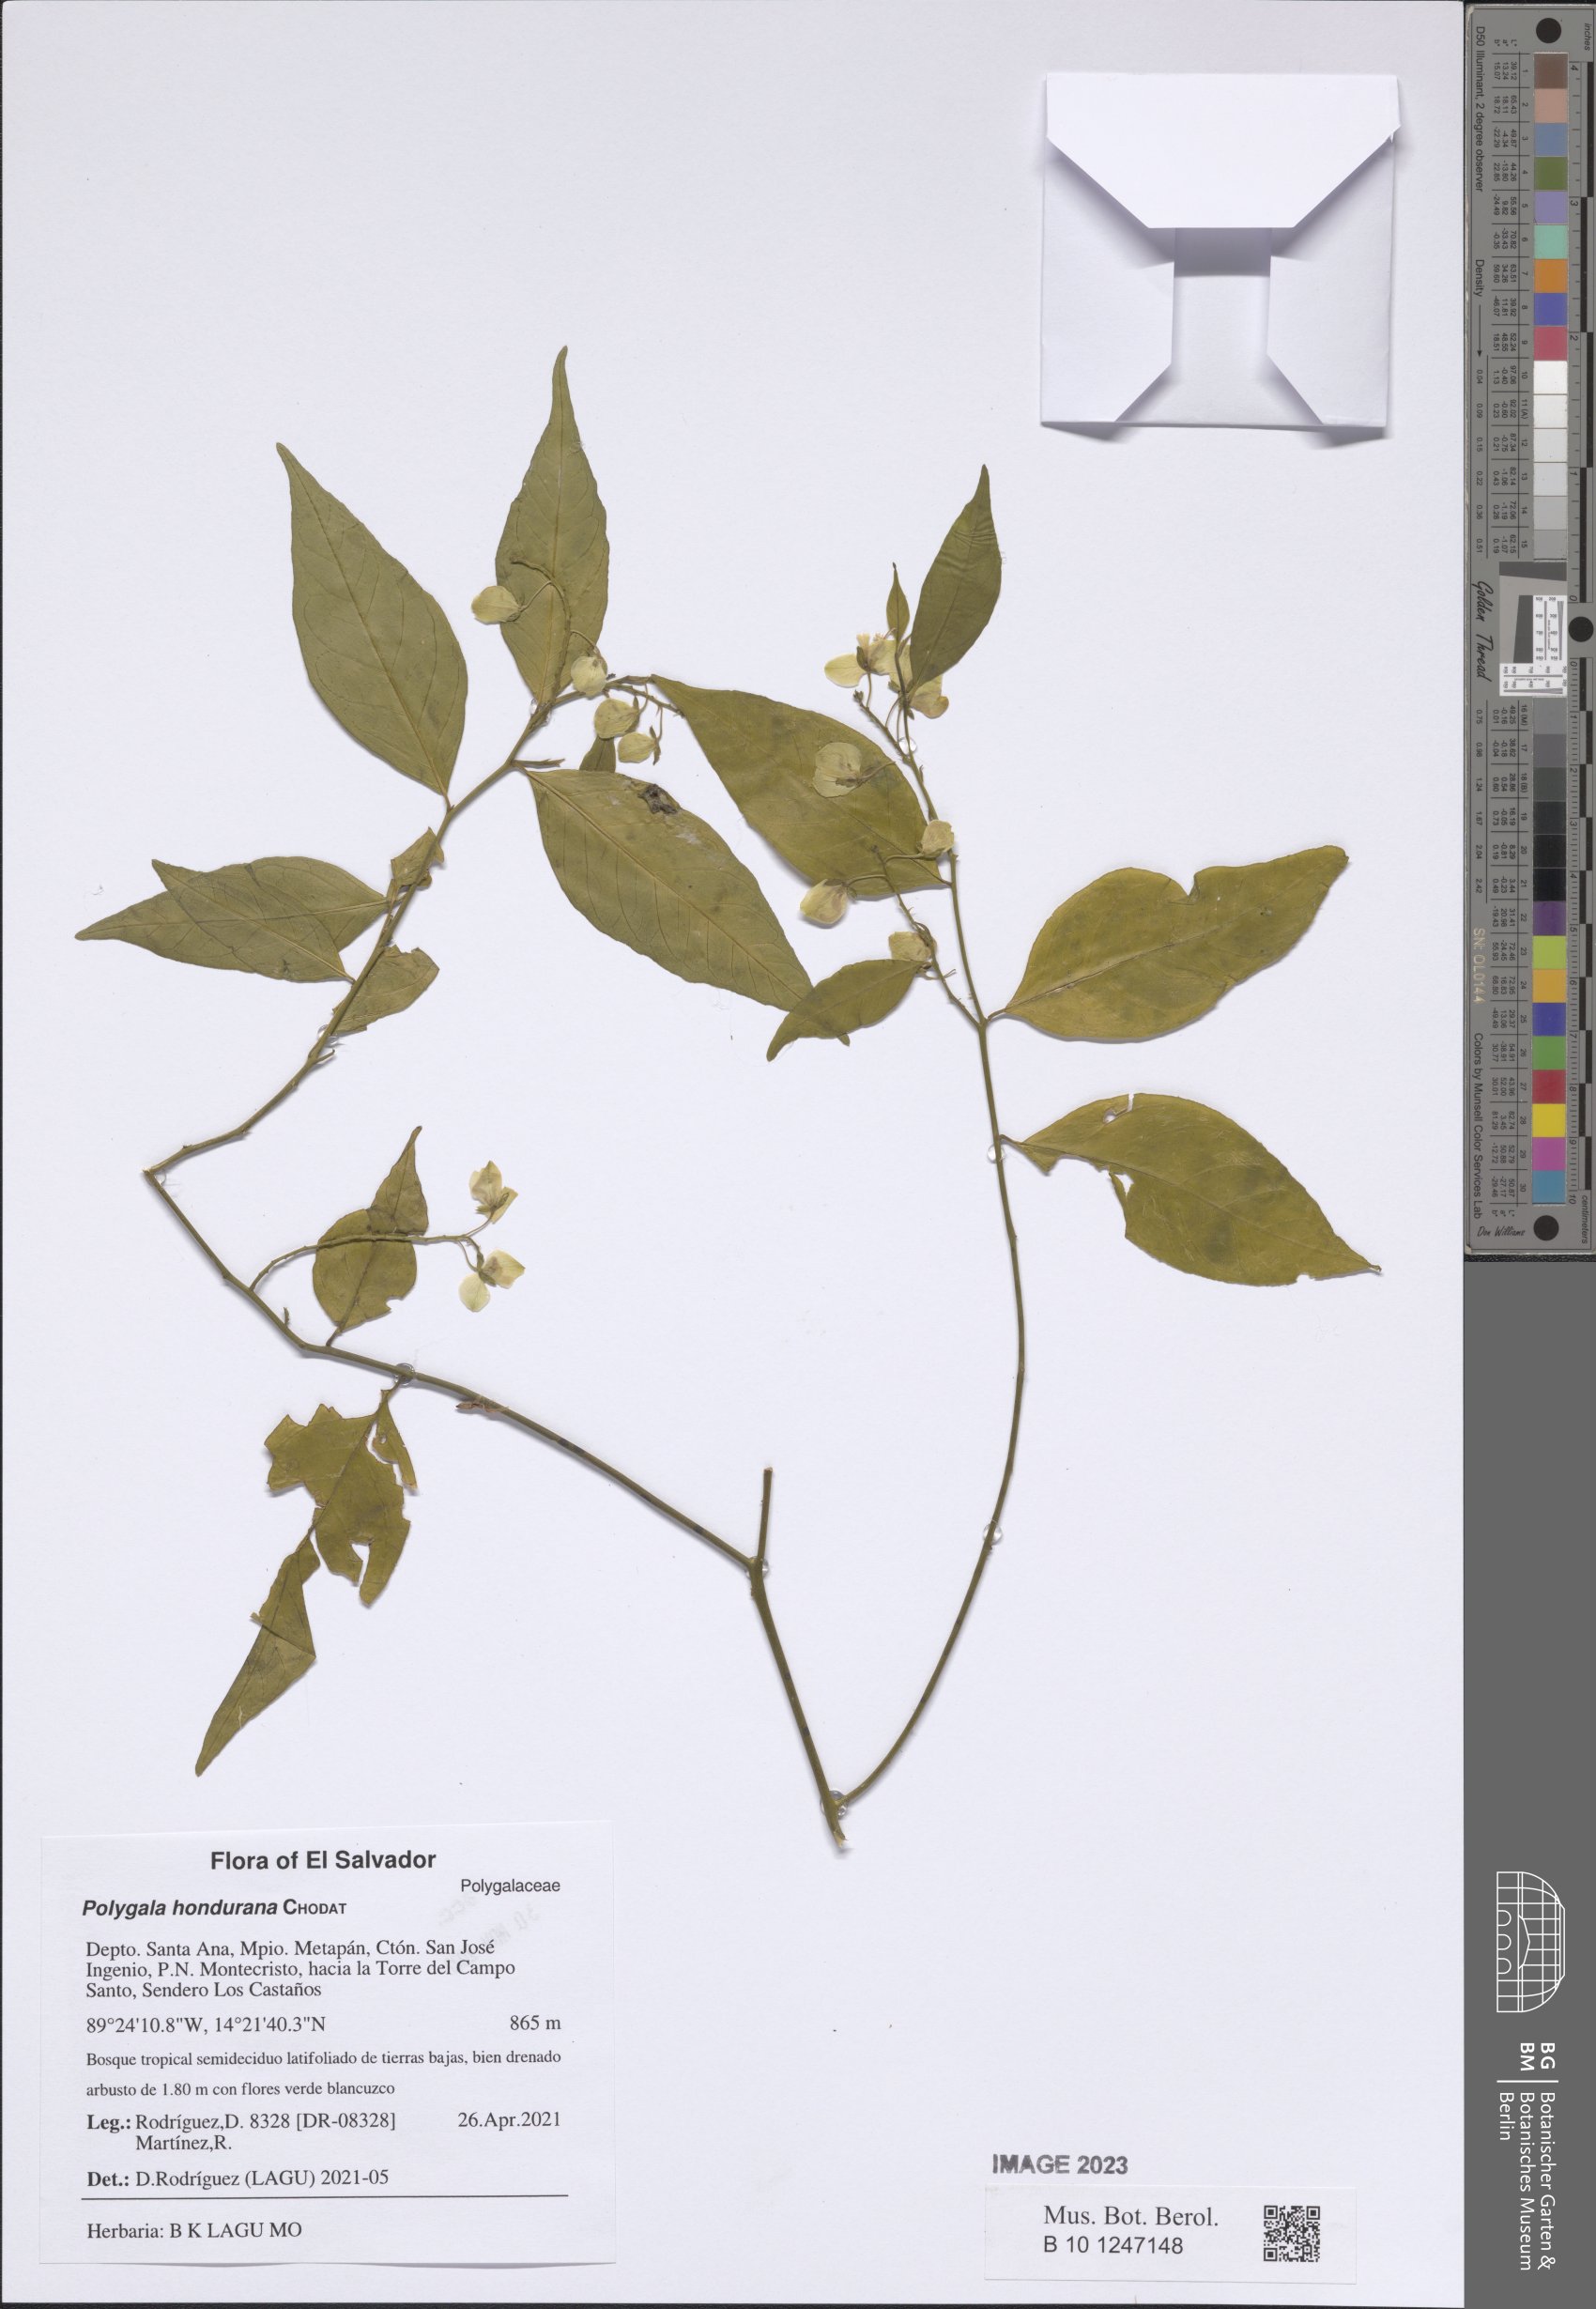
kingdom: Plantae
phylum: Tracheophyta
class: Magnoliopsida
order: Fabales
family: Polygalaceae
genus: Asemeia
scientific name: Asemeia hondurana
